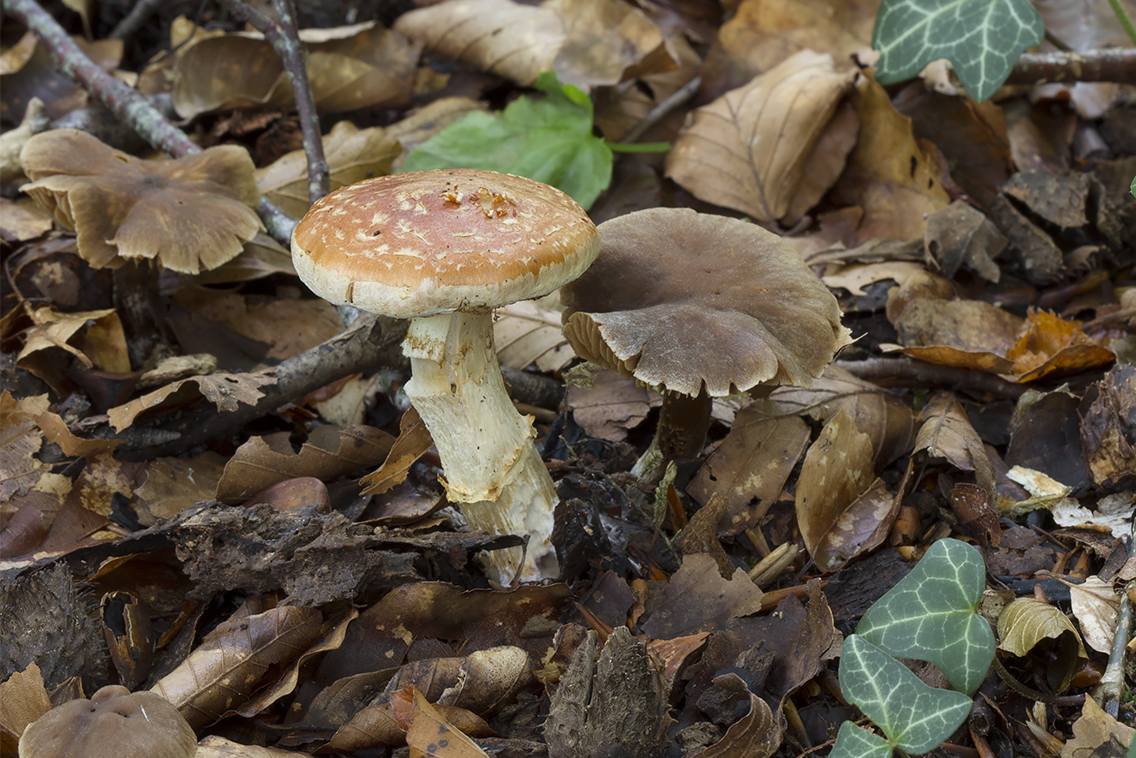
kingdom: Fungi
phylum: Basidiomycota
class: Agaricomycetes
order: Agaricales
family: Cortinariaceae
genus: Phlegmacium
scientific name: Phlegmacium vulpinum
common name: ringbæltet slørhat
